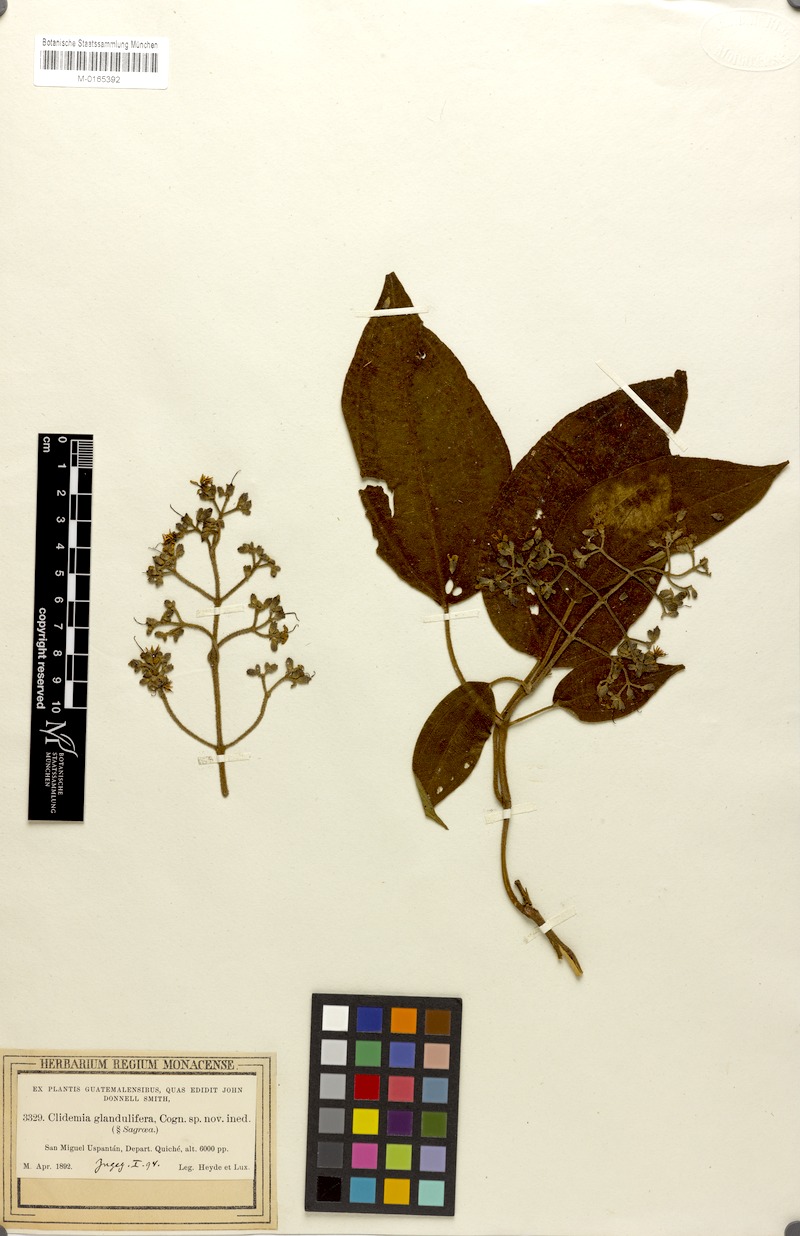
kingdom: Plantae
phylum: Tracheophyta
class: Magnoliopsida
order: Myrtales
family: Melastomataceae
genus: Miconia
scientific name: Miconia tuerckheimii
